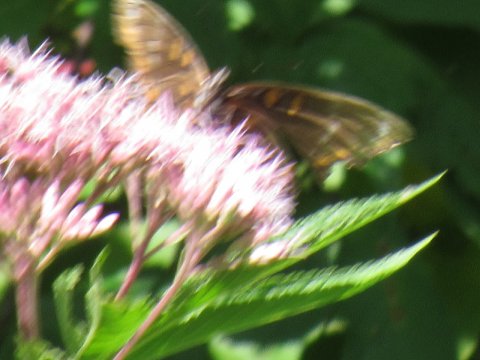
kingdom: Animalia
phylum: Arthropoda
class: Insecta
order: Lepidoptera
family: Nymphalidae
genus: Limenitis
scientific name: Limenitis arthemis
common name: Red-spotted Admiral
